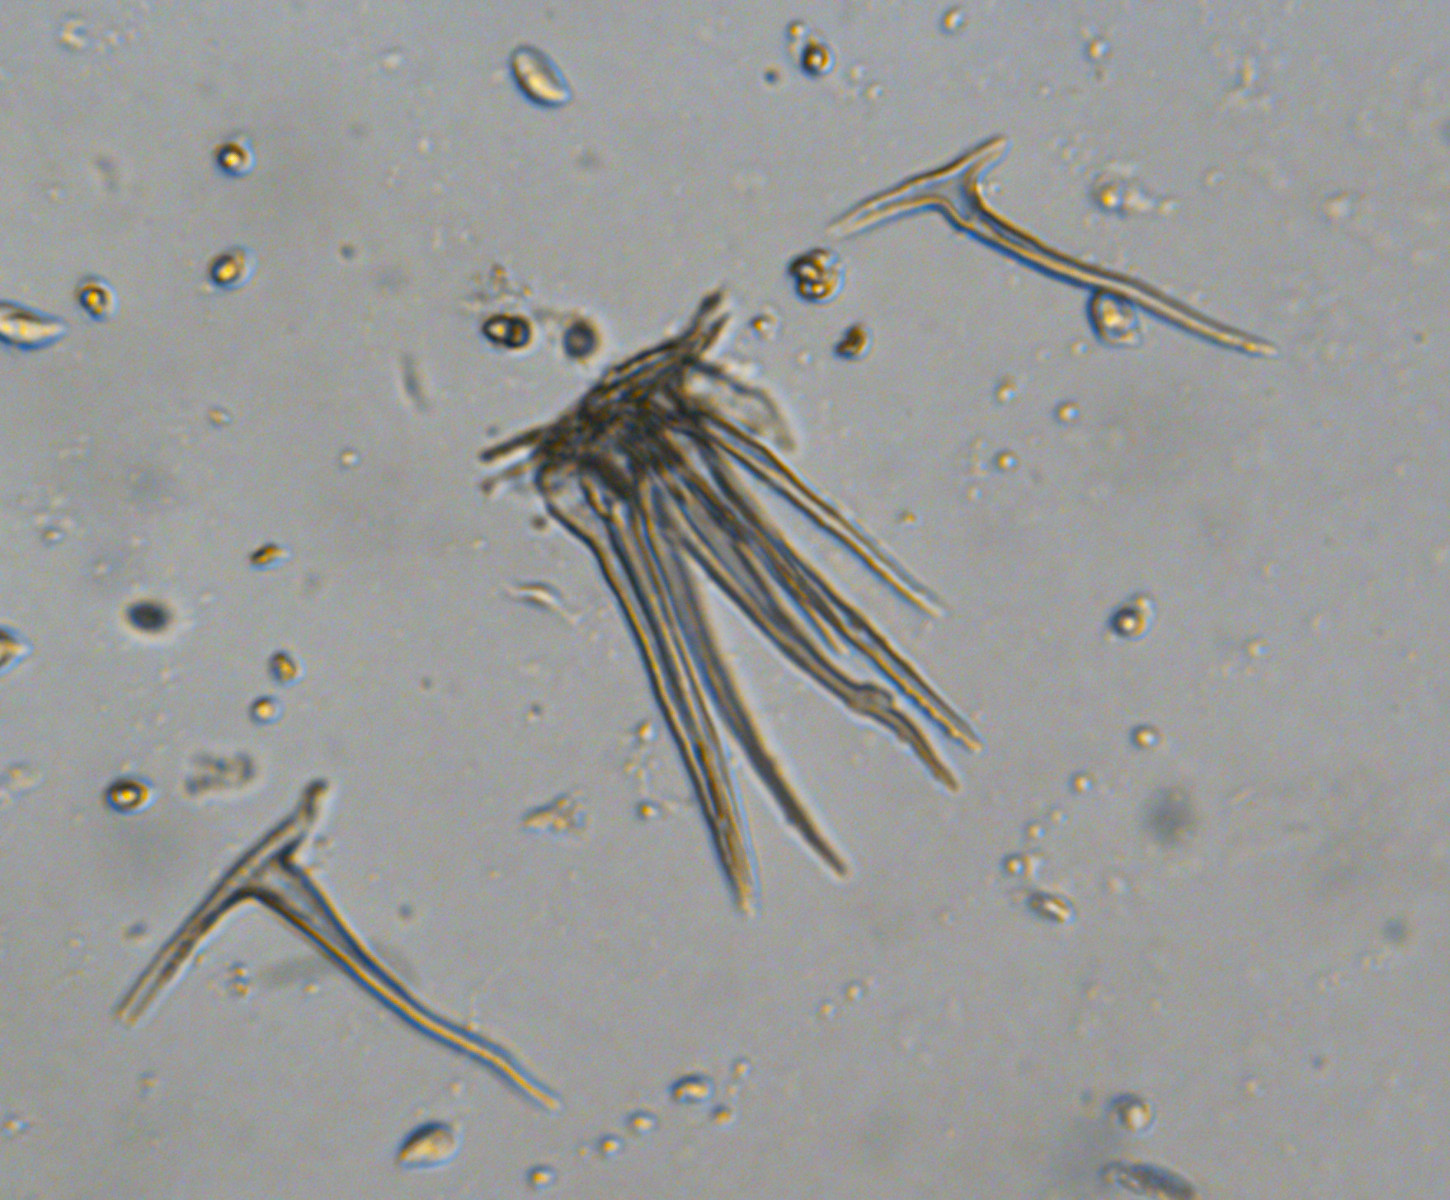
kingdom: Fungi
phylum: Basidiomycota
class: Agaricomycetes
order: Agaricales
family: Marasmiaceae
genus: Marasmius
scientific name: Marasmius torquescens
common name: filtfodet bruskhat
